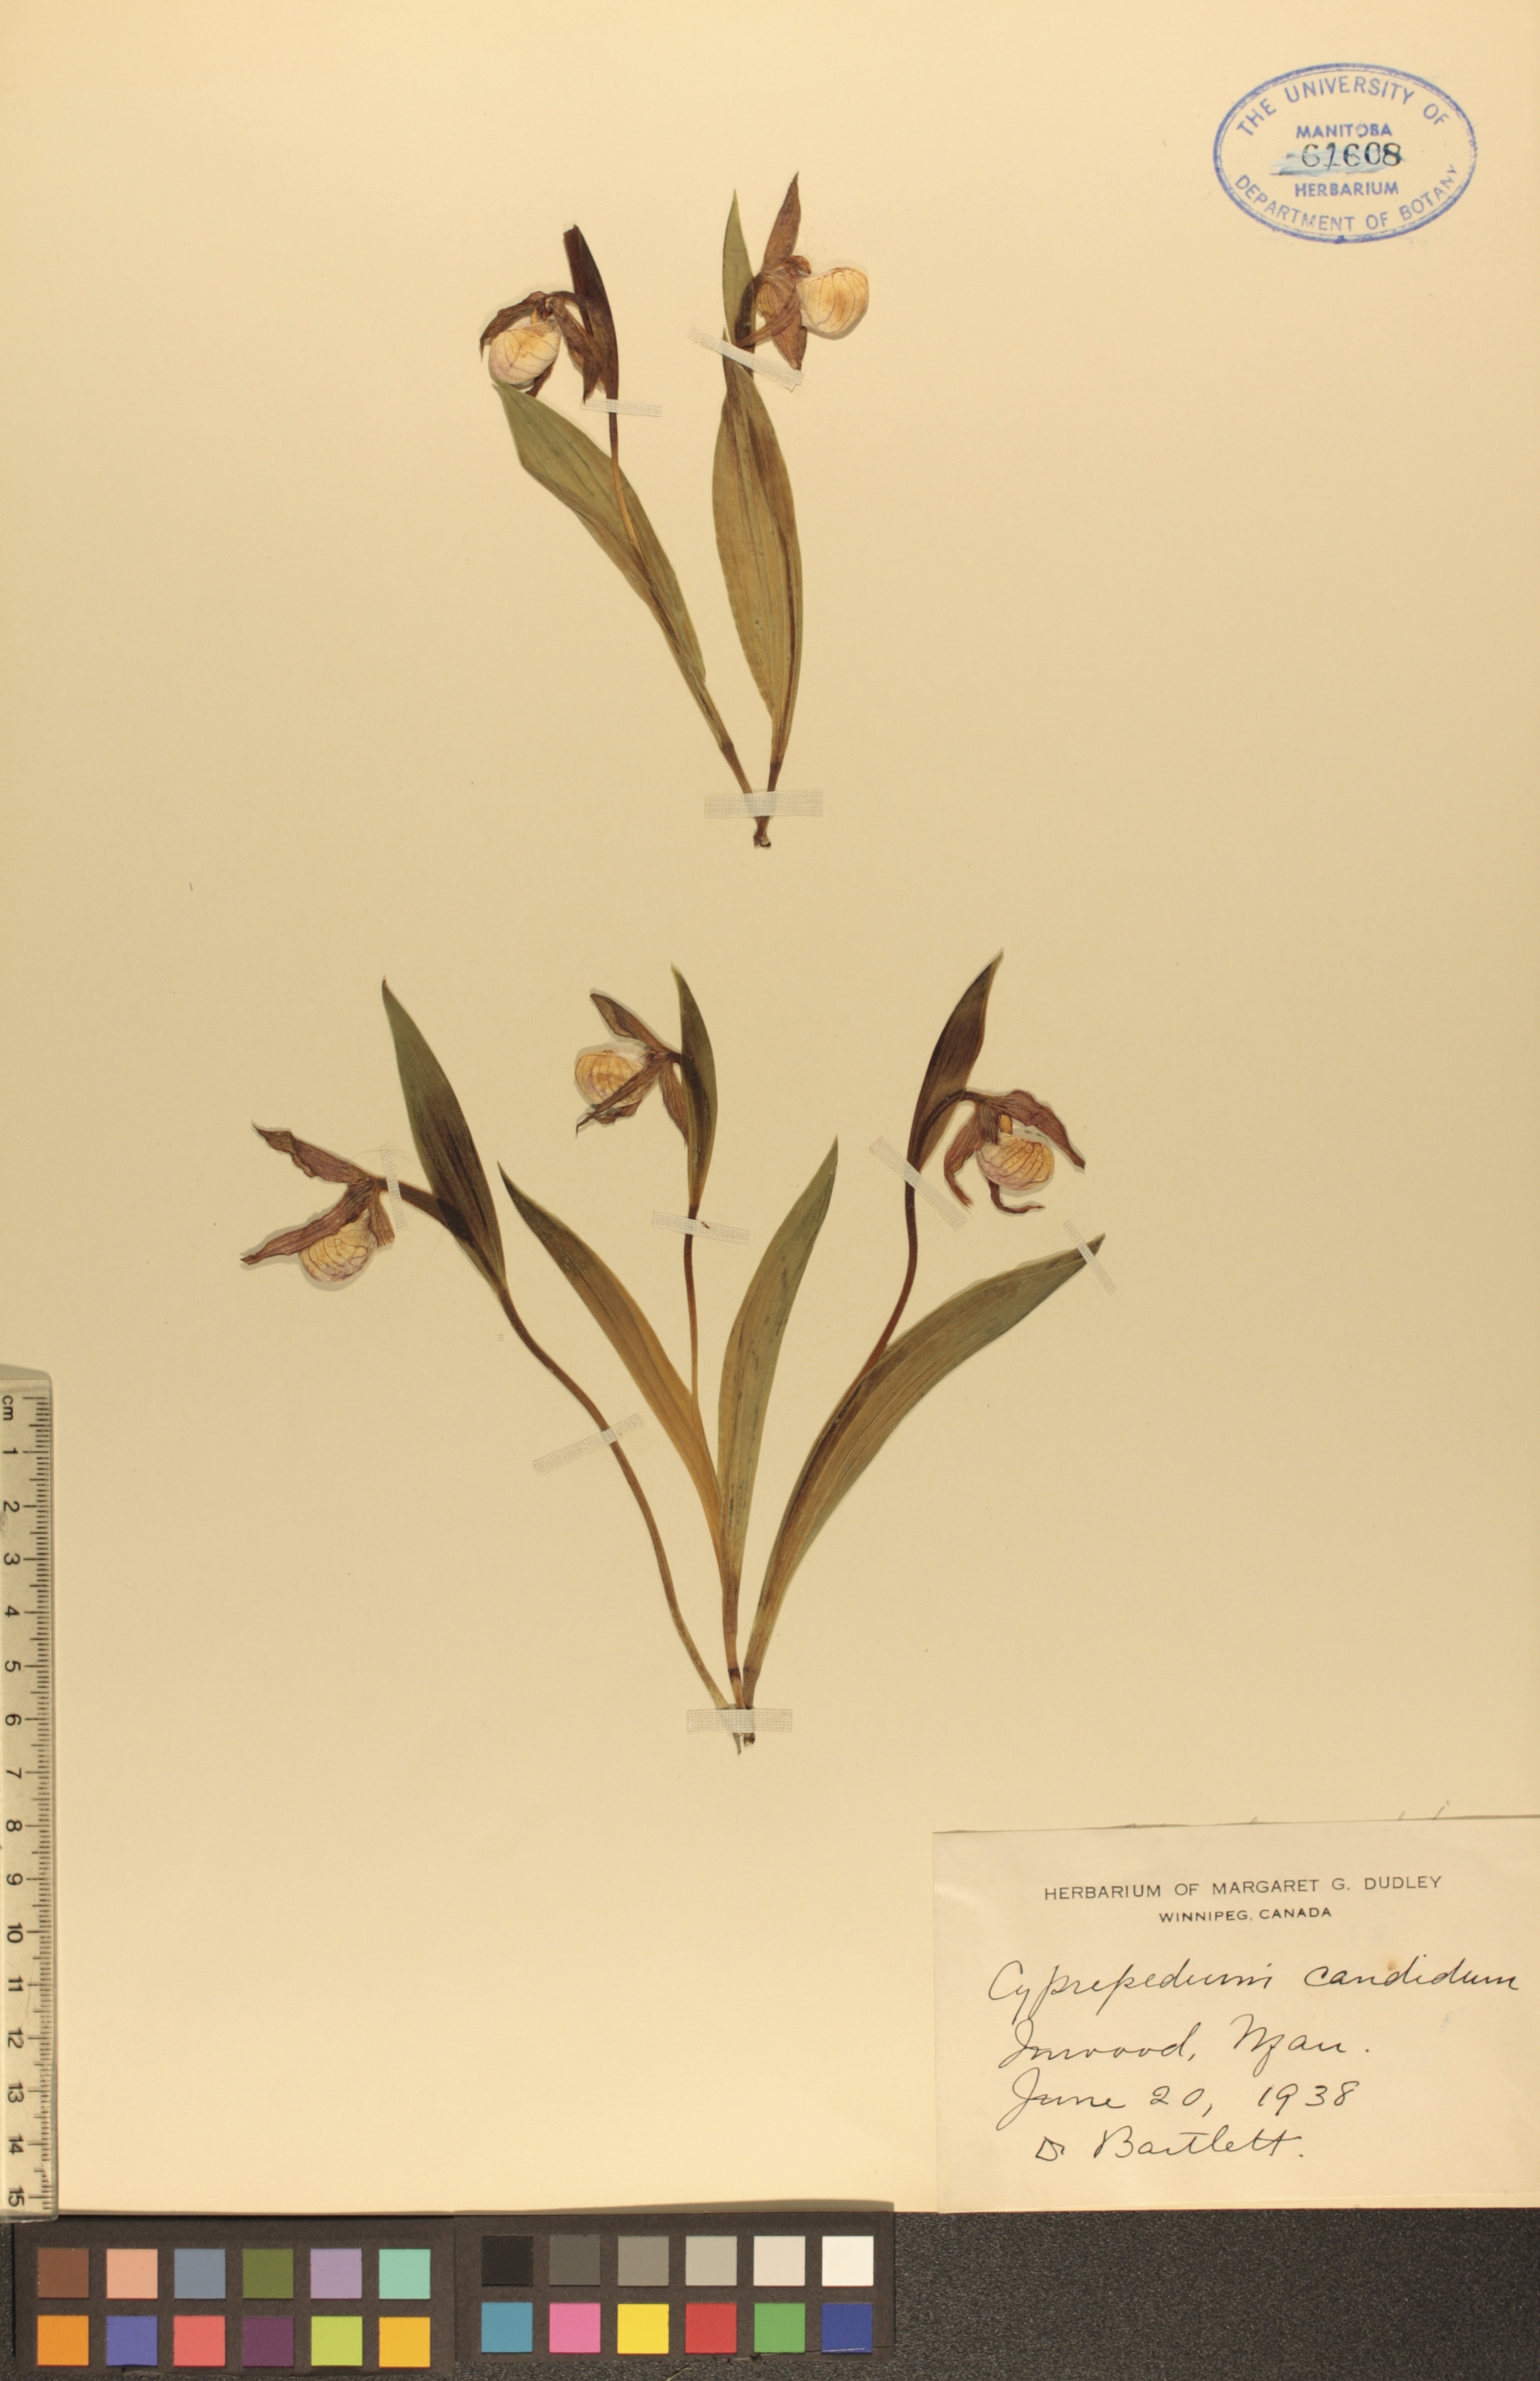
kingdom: Plantae
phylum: Tracheophyta
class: Liliopsida
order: Asparagales
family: Orchidaceae
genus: Cypripedium
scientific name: Cypripedium candidum
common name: White lady's-slipper
